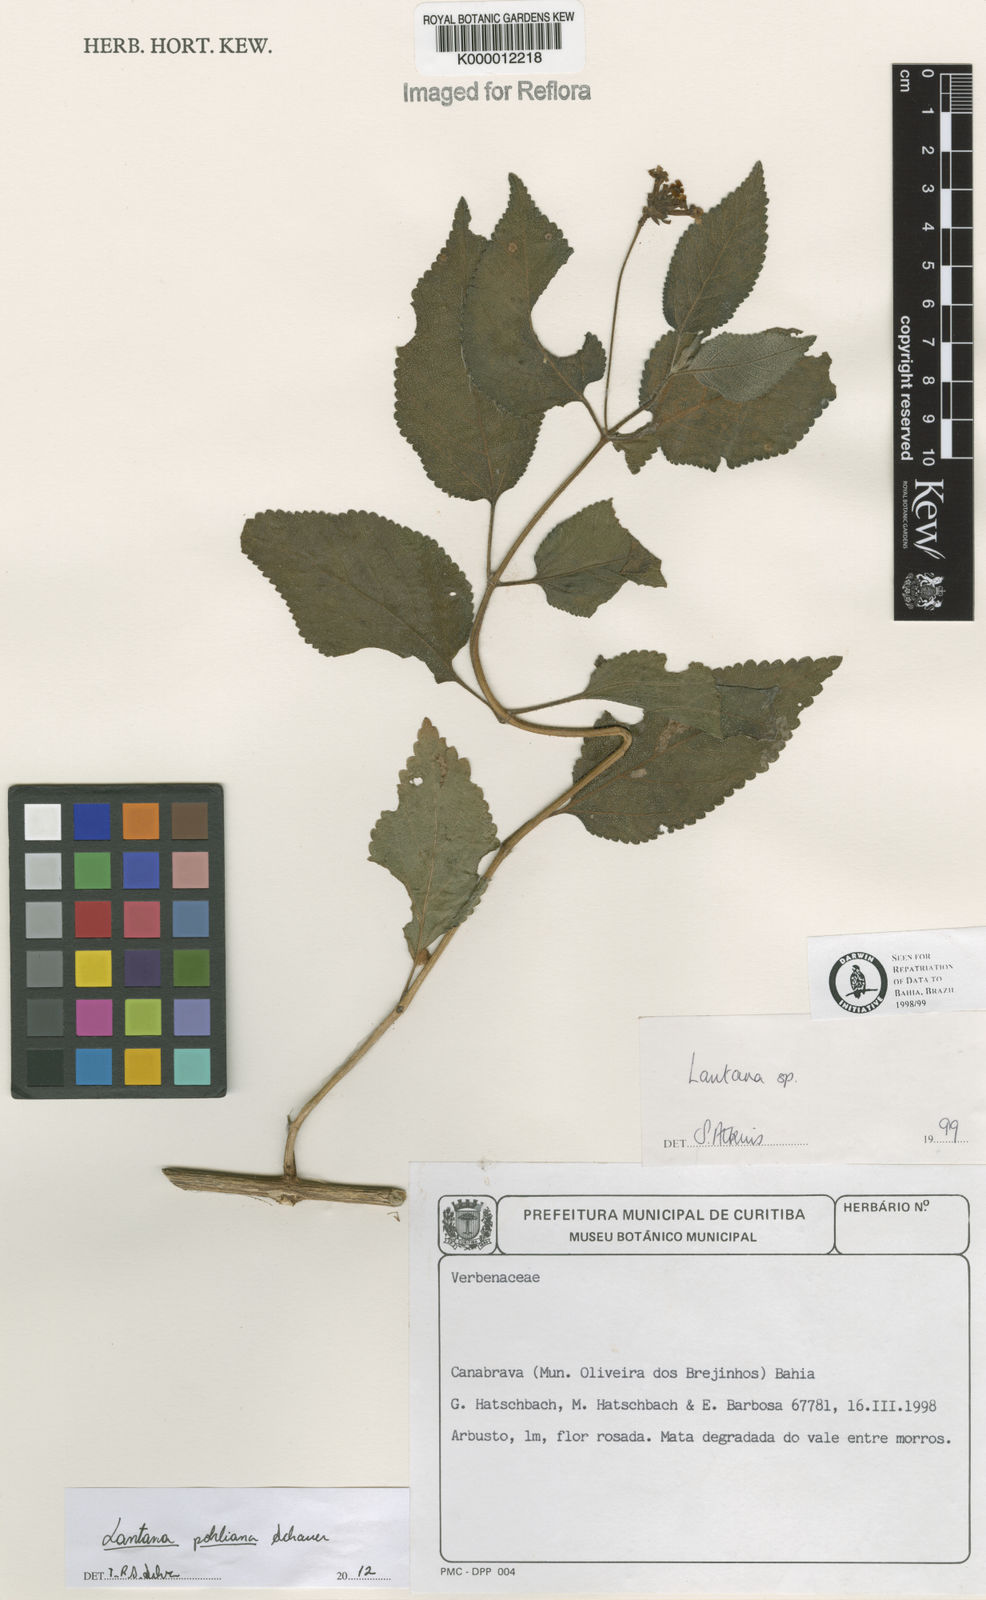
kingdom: Plantae
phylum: Tracheophyta
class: Magnoliopsida
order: Lamiales
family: Verbenaceae
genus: Lantana
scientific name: Lantana pohliana
